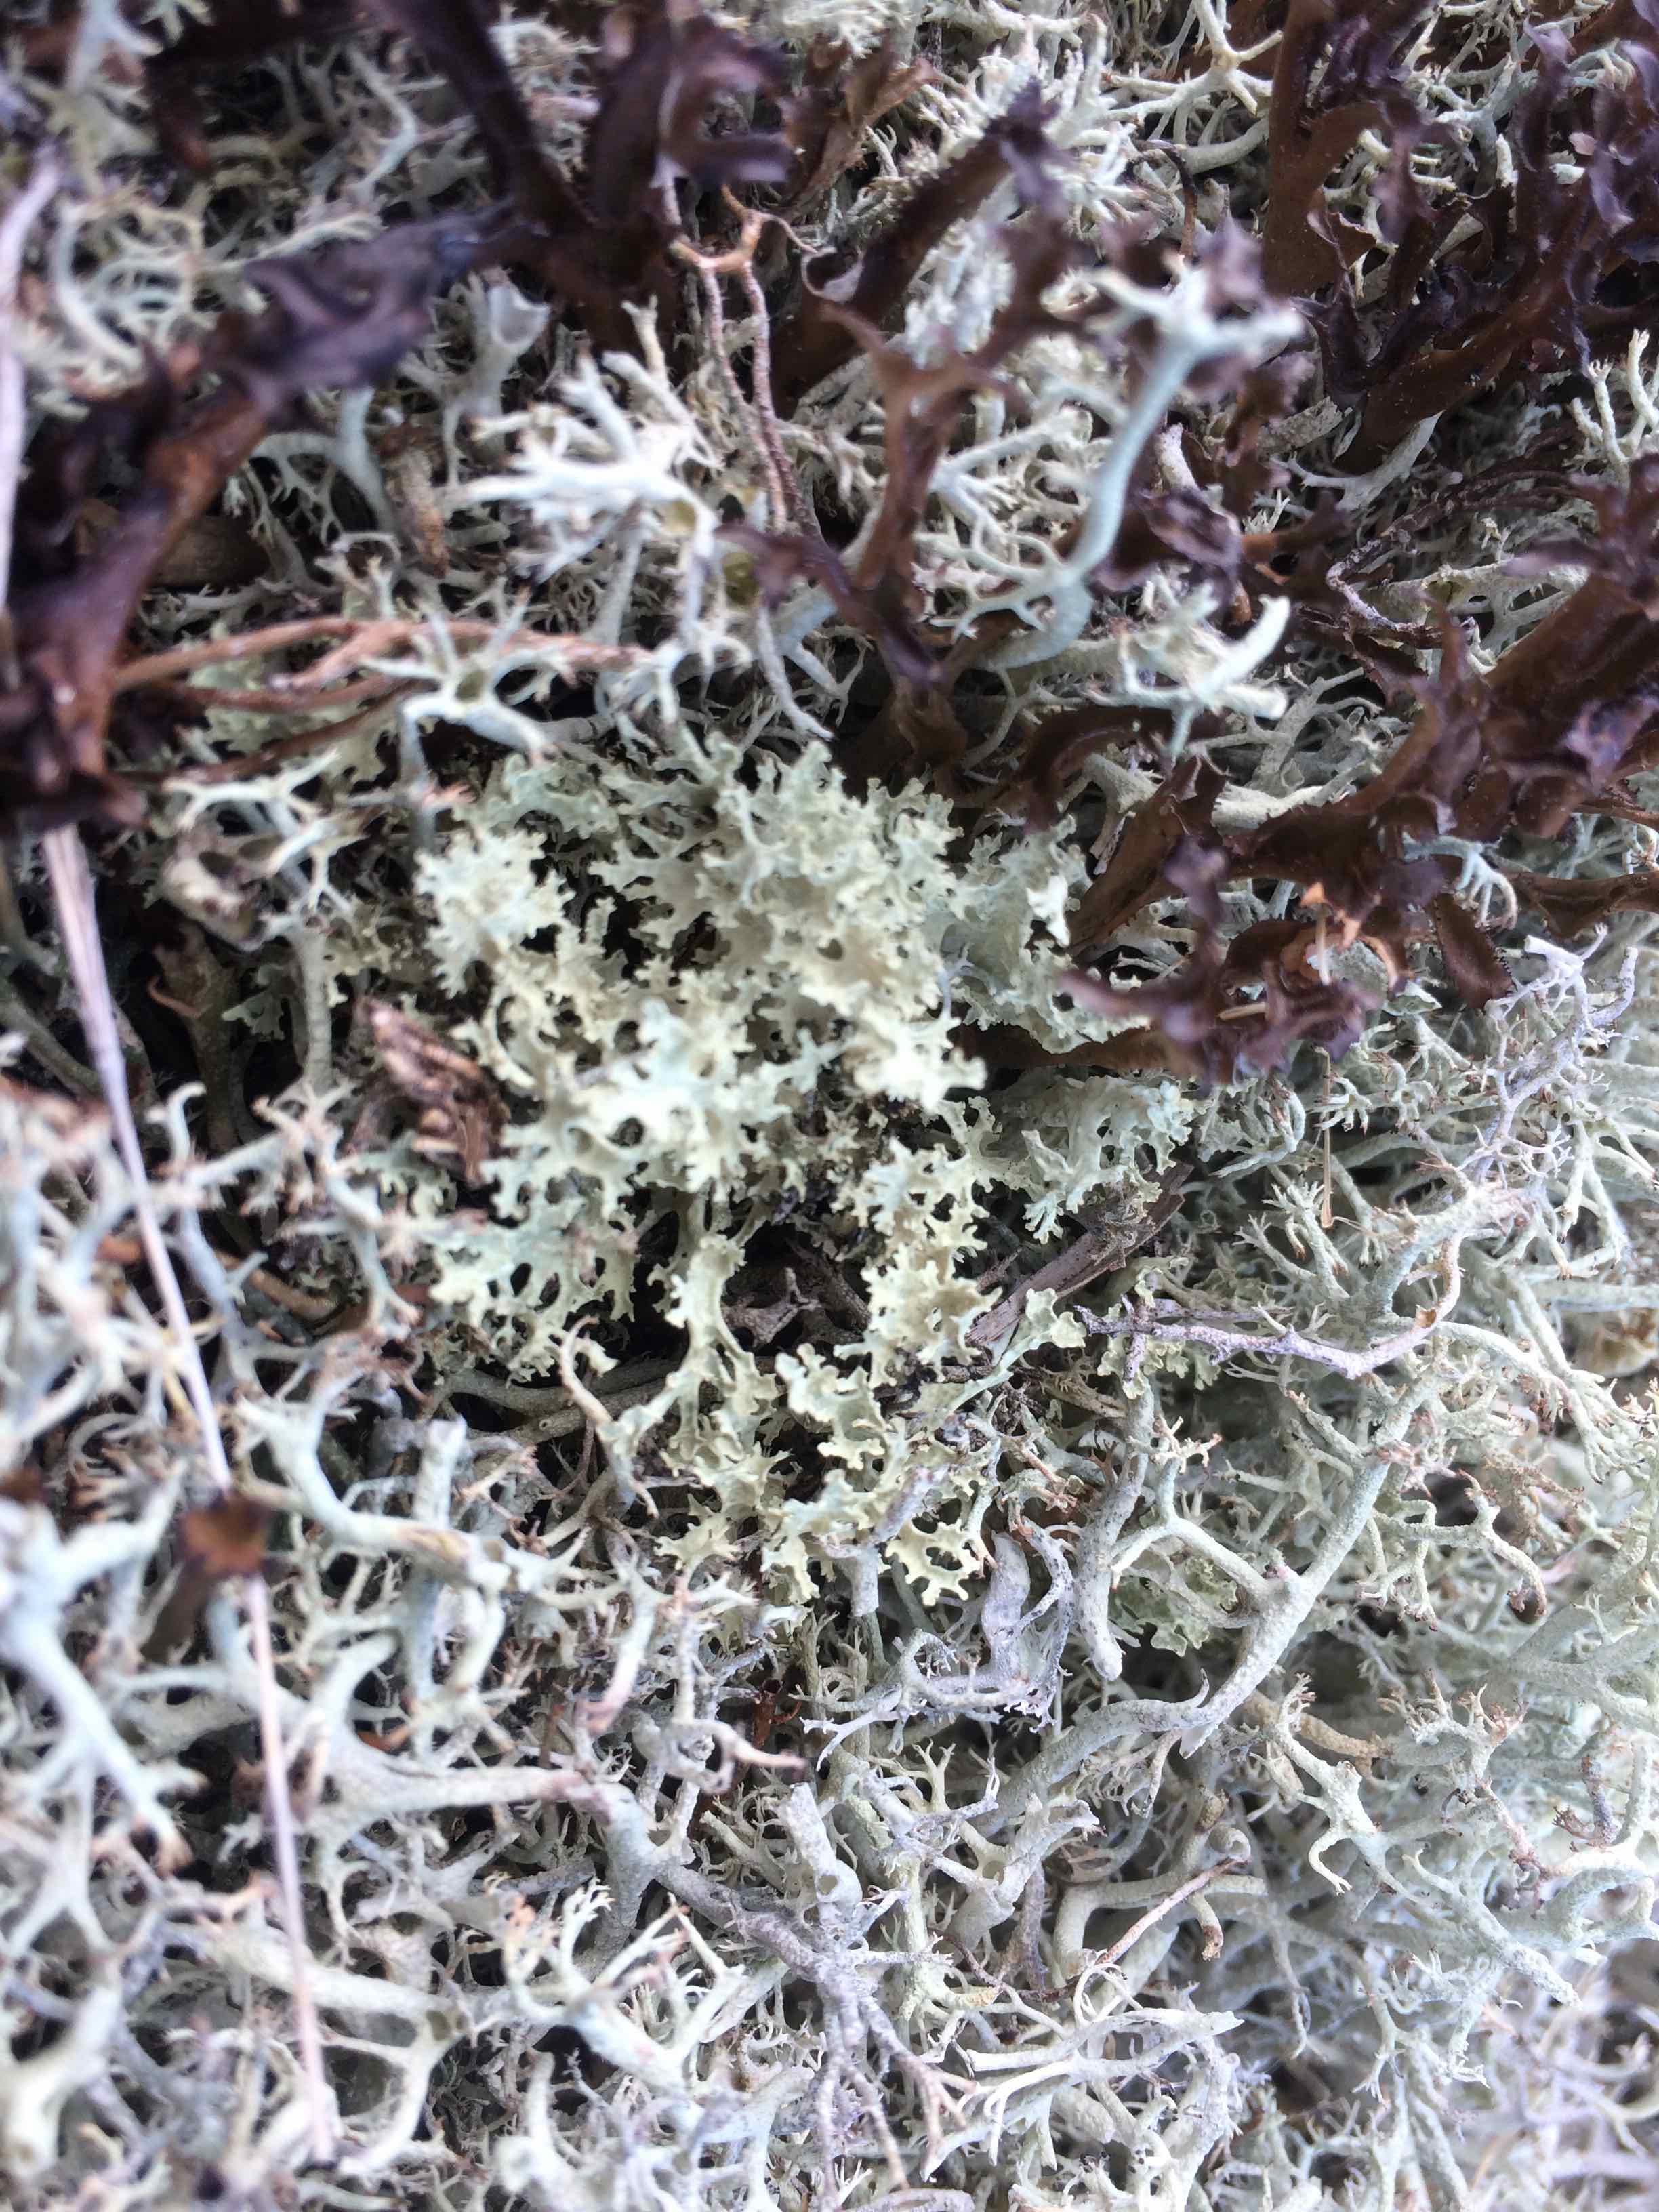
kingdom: Fungi
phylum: Ascomycota
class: Lecanoromycetes
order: Lecanorales
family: Parmeliaceae
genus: Nephromopsis
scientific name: Nephromopsis nivalis
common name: sne-kruslav
